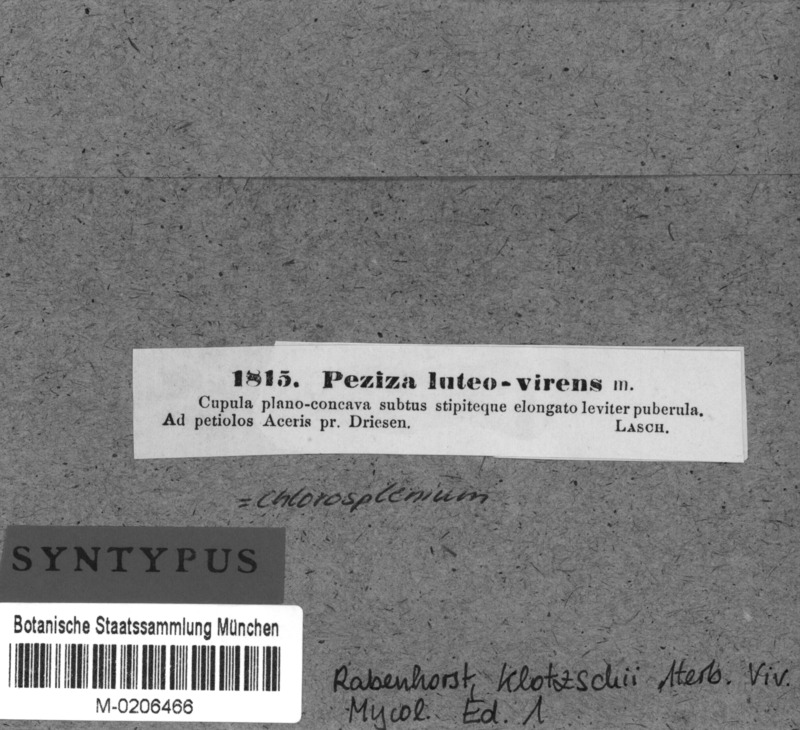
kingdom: Fungi
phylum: Ascomycota
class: Leotiomycetes
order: Helotiales
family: Rutstroemiaceae
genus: Lanzia
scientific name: Lanzia luteovirescens
